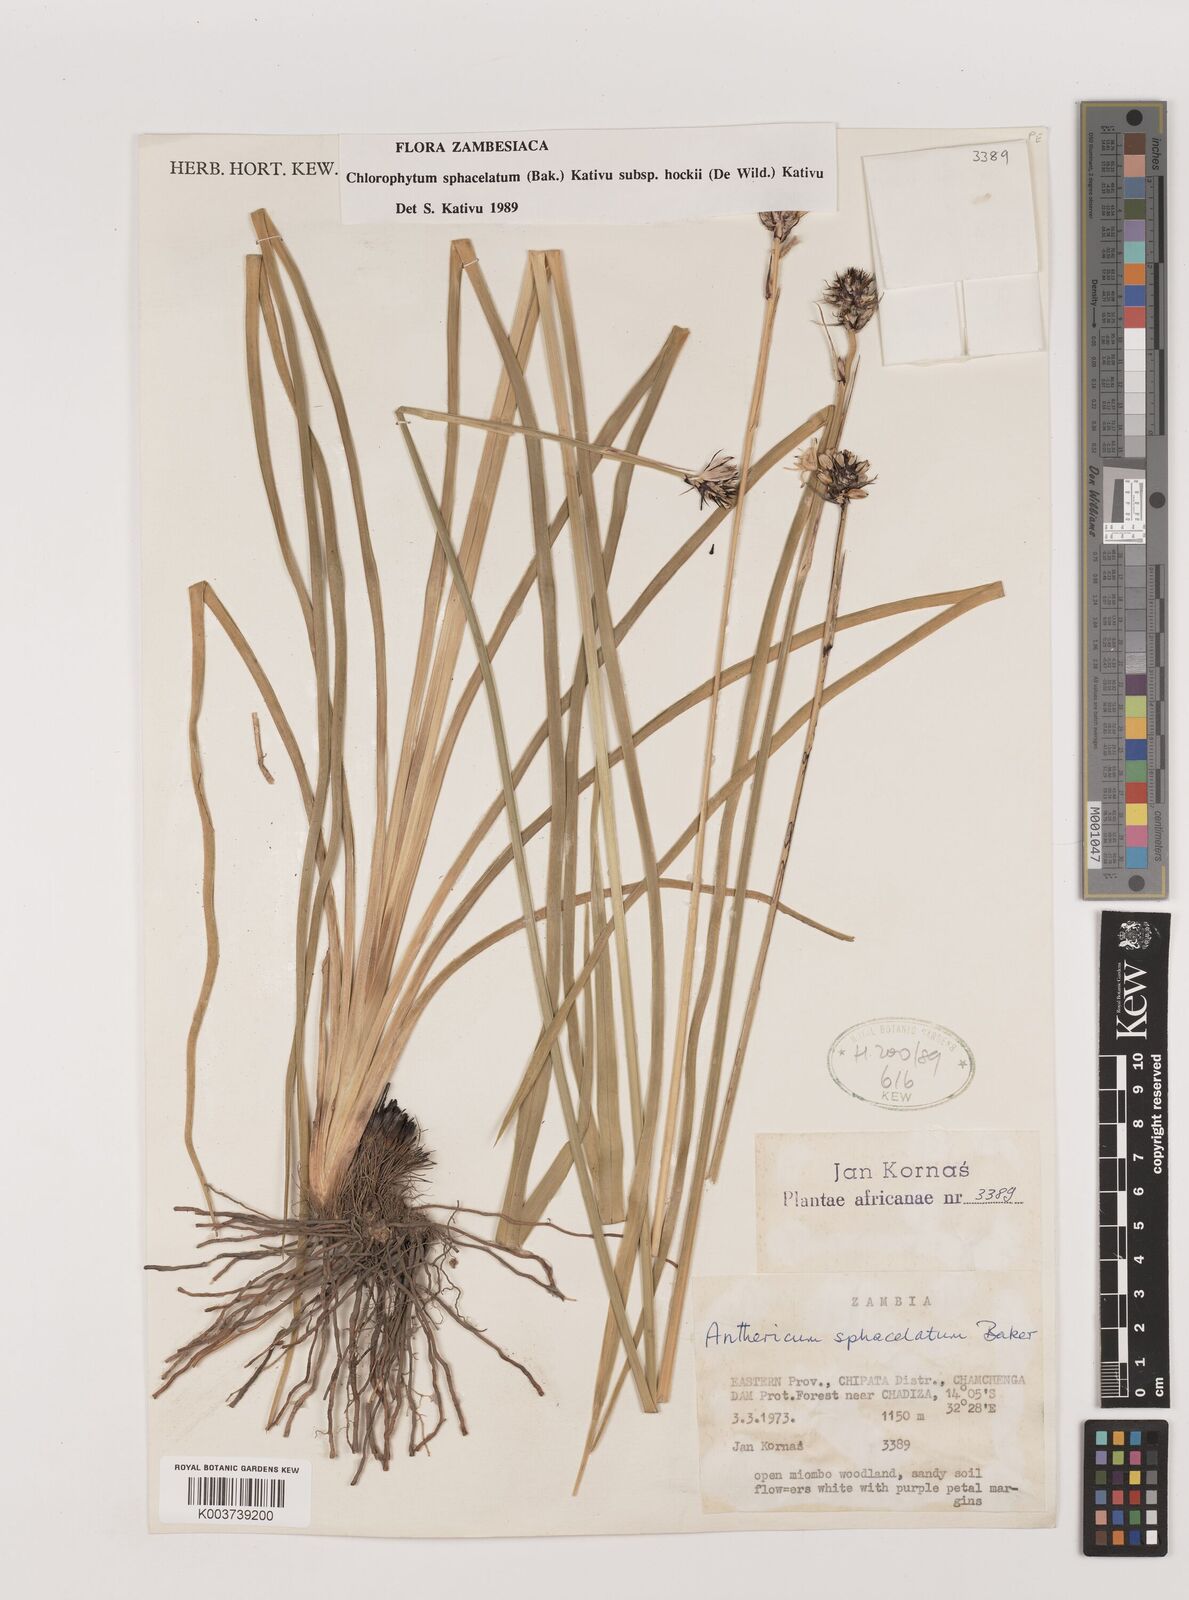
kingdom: Plantae
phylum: Tracheophyta
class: Liliopsida
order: Asparagales
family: Asparagaceae
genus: Chlorophytum
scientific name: Chlorophytum sphacelatum
